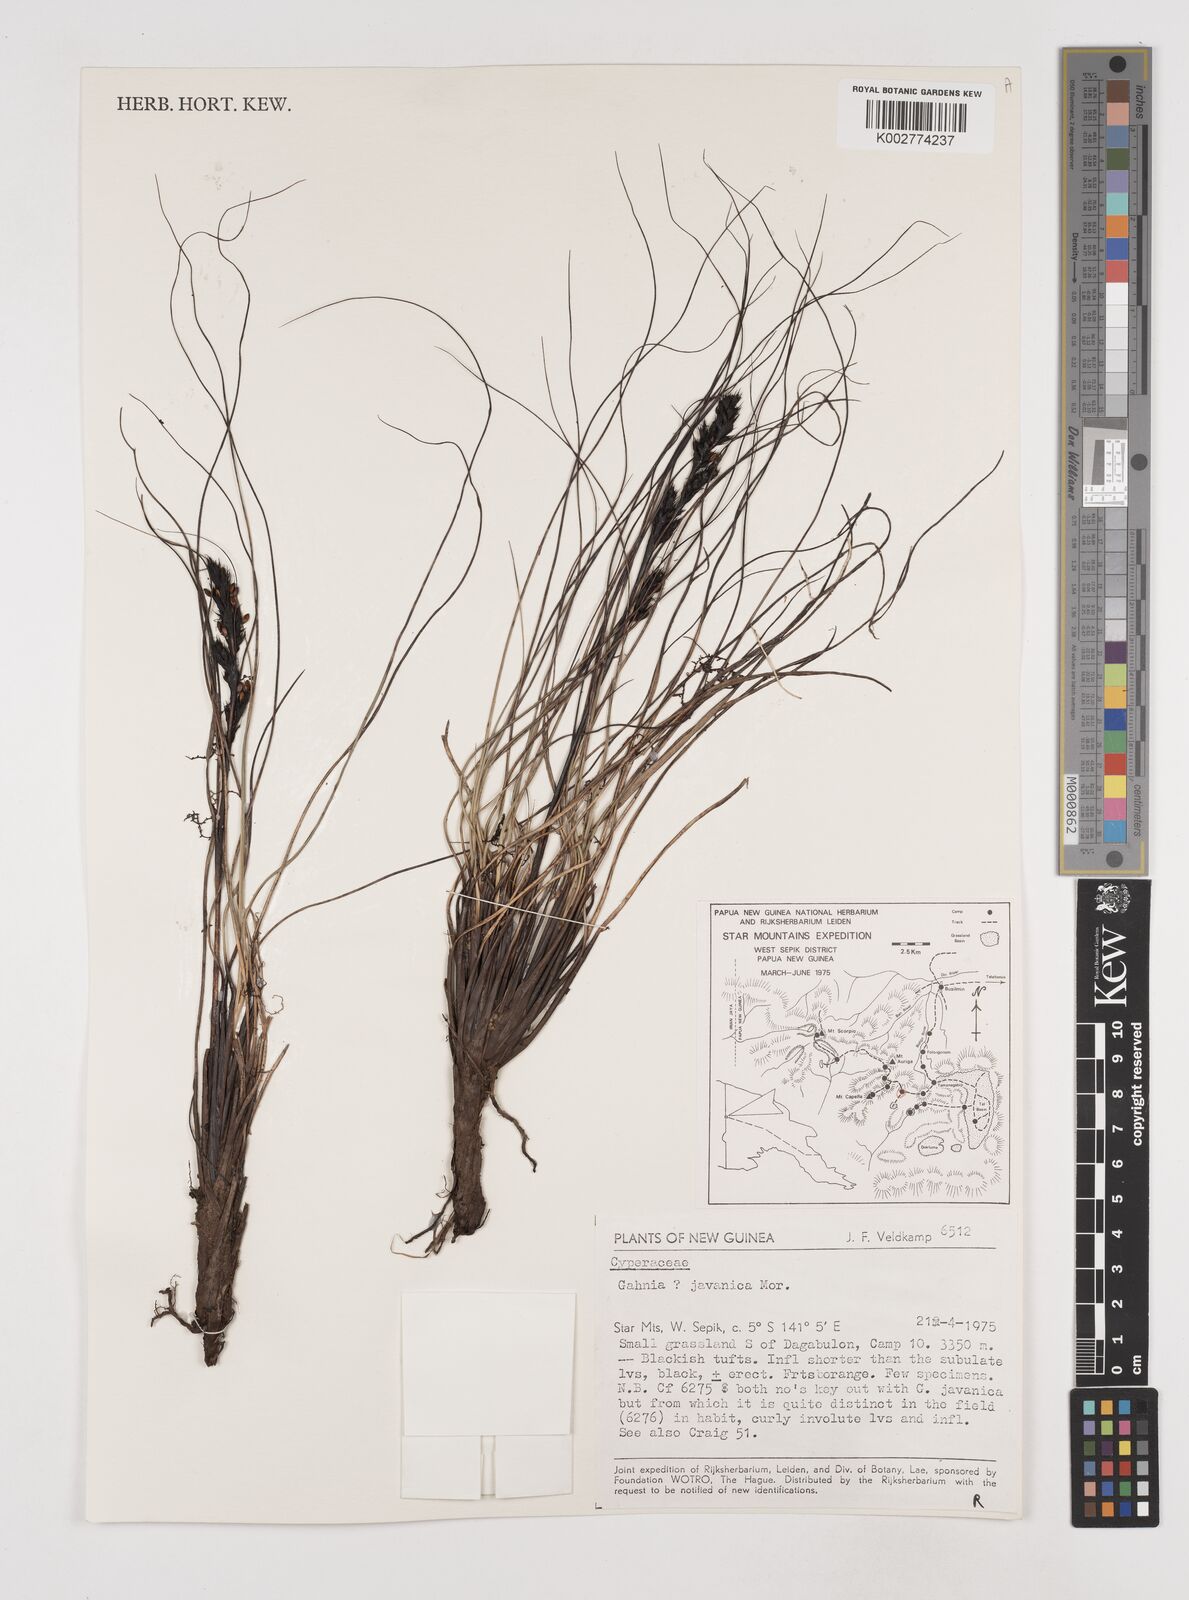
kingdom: Plantae
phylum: Tracheophyta
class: Liliopsida
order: Poales
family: Cyperaceae
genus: Gahnia
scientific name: Gahnia javanica
